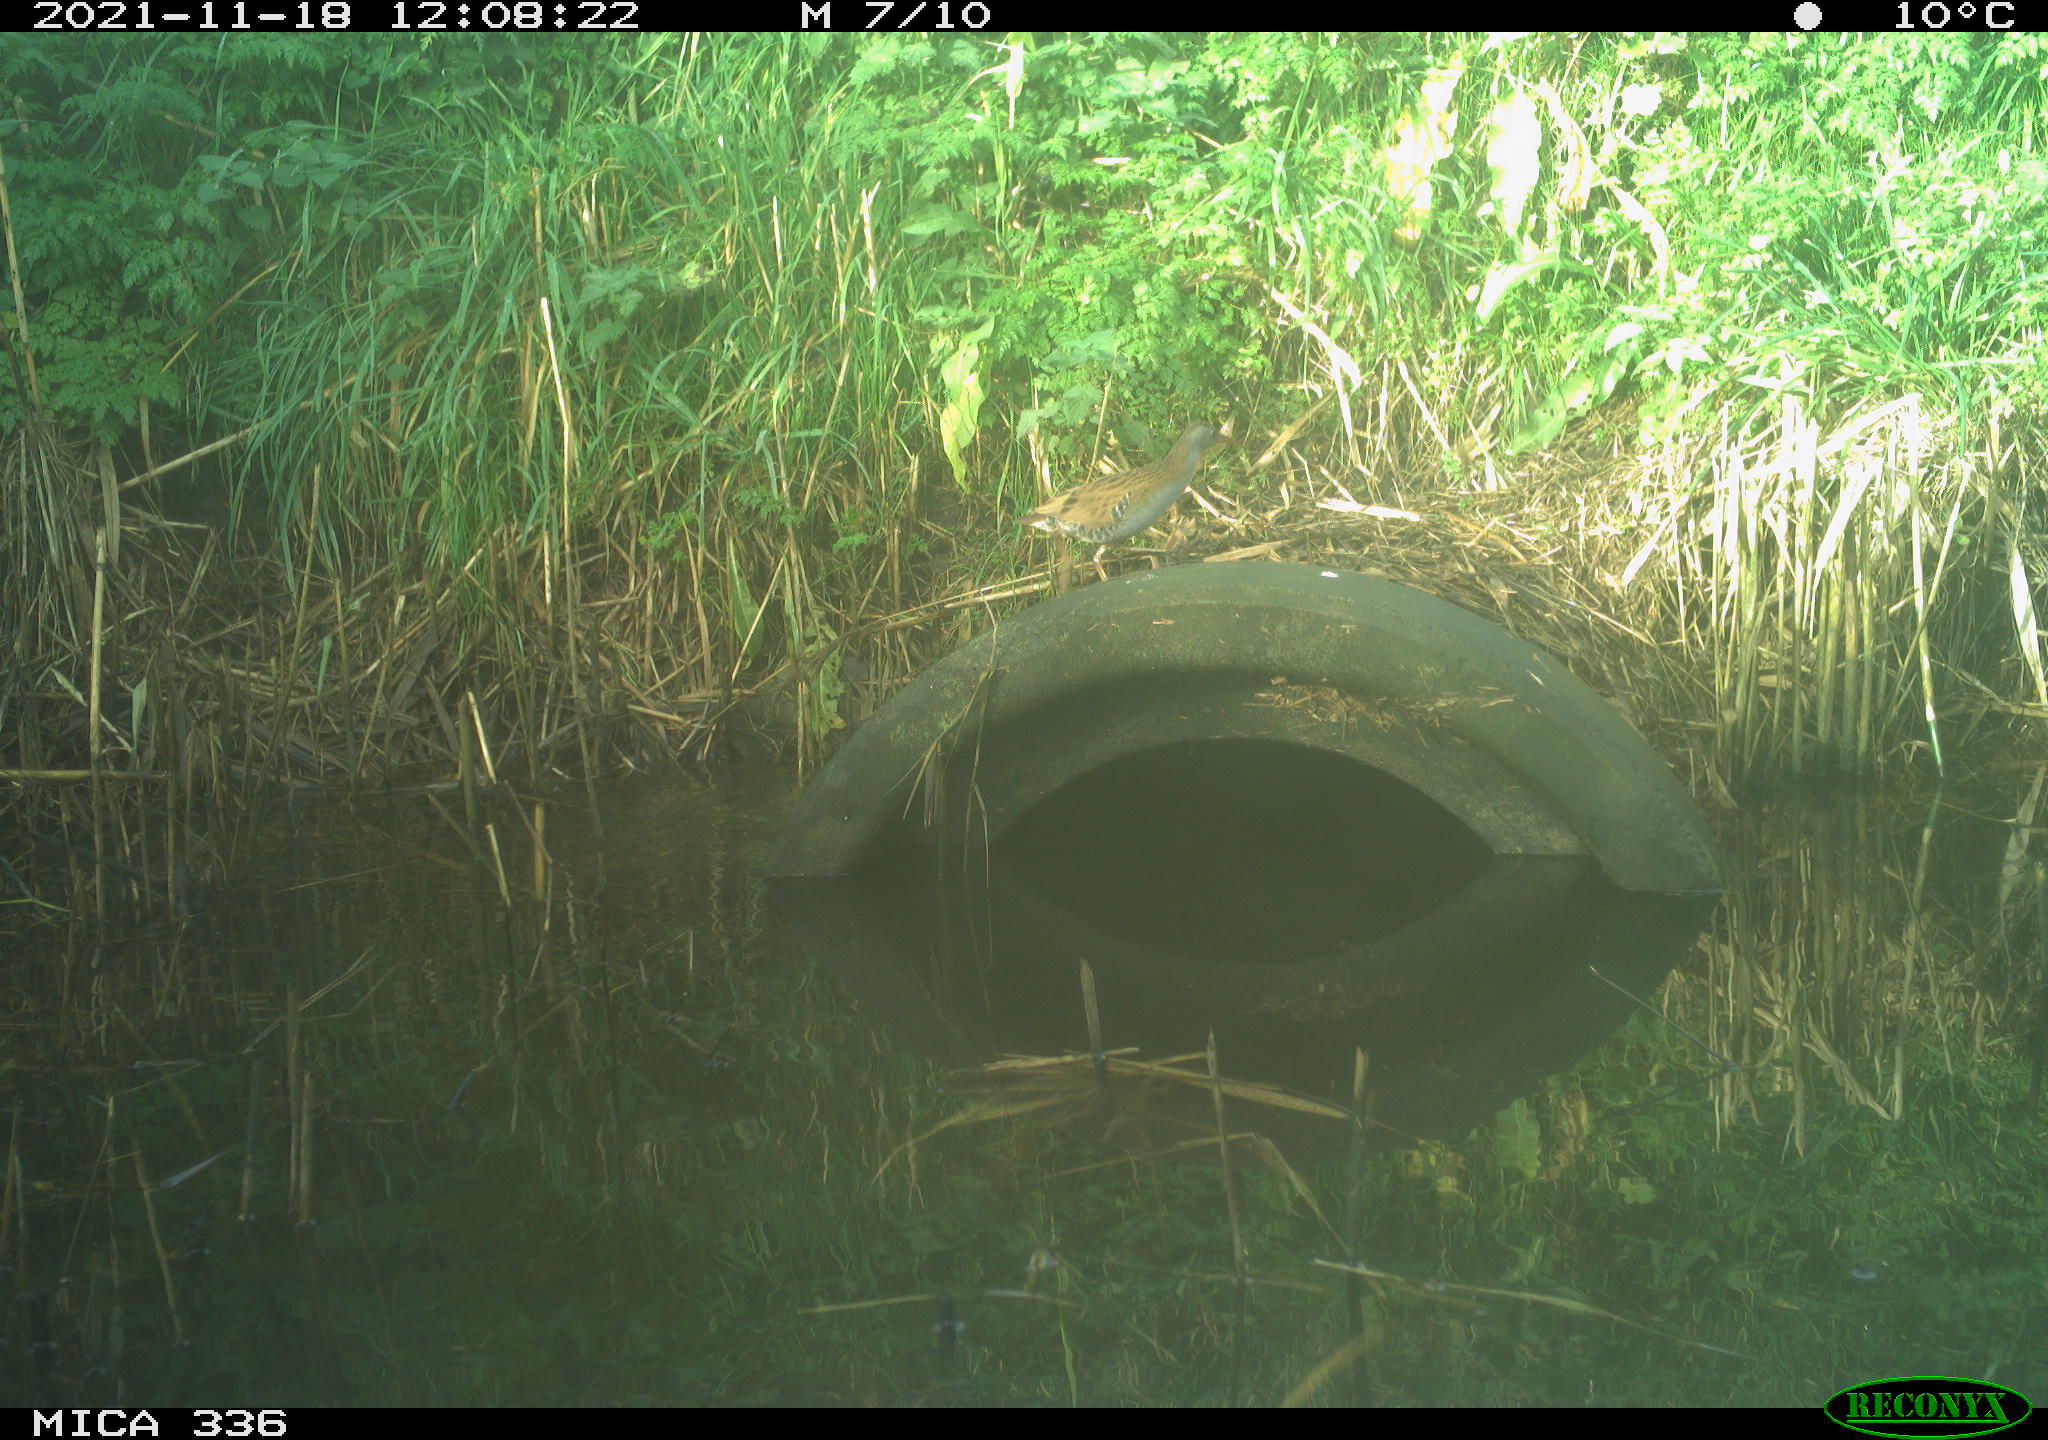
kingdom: Animalia
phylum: Chordata
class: Aves
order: Gruiformes
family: Rallidae
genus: Gallinula
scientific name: Gallinula chloropus
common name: Common moorhen
